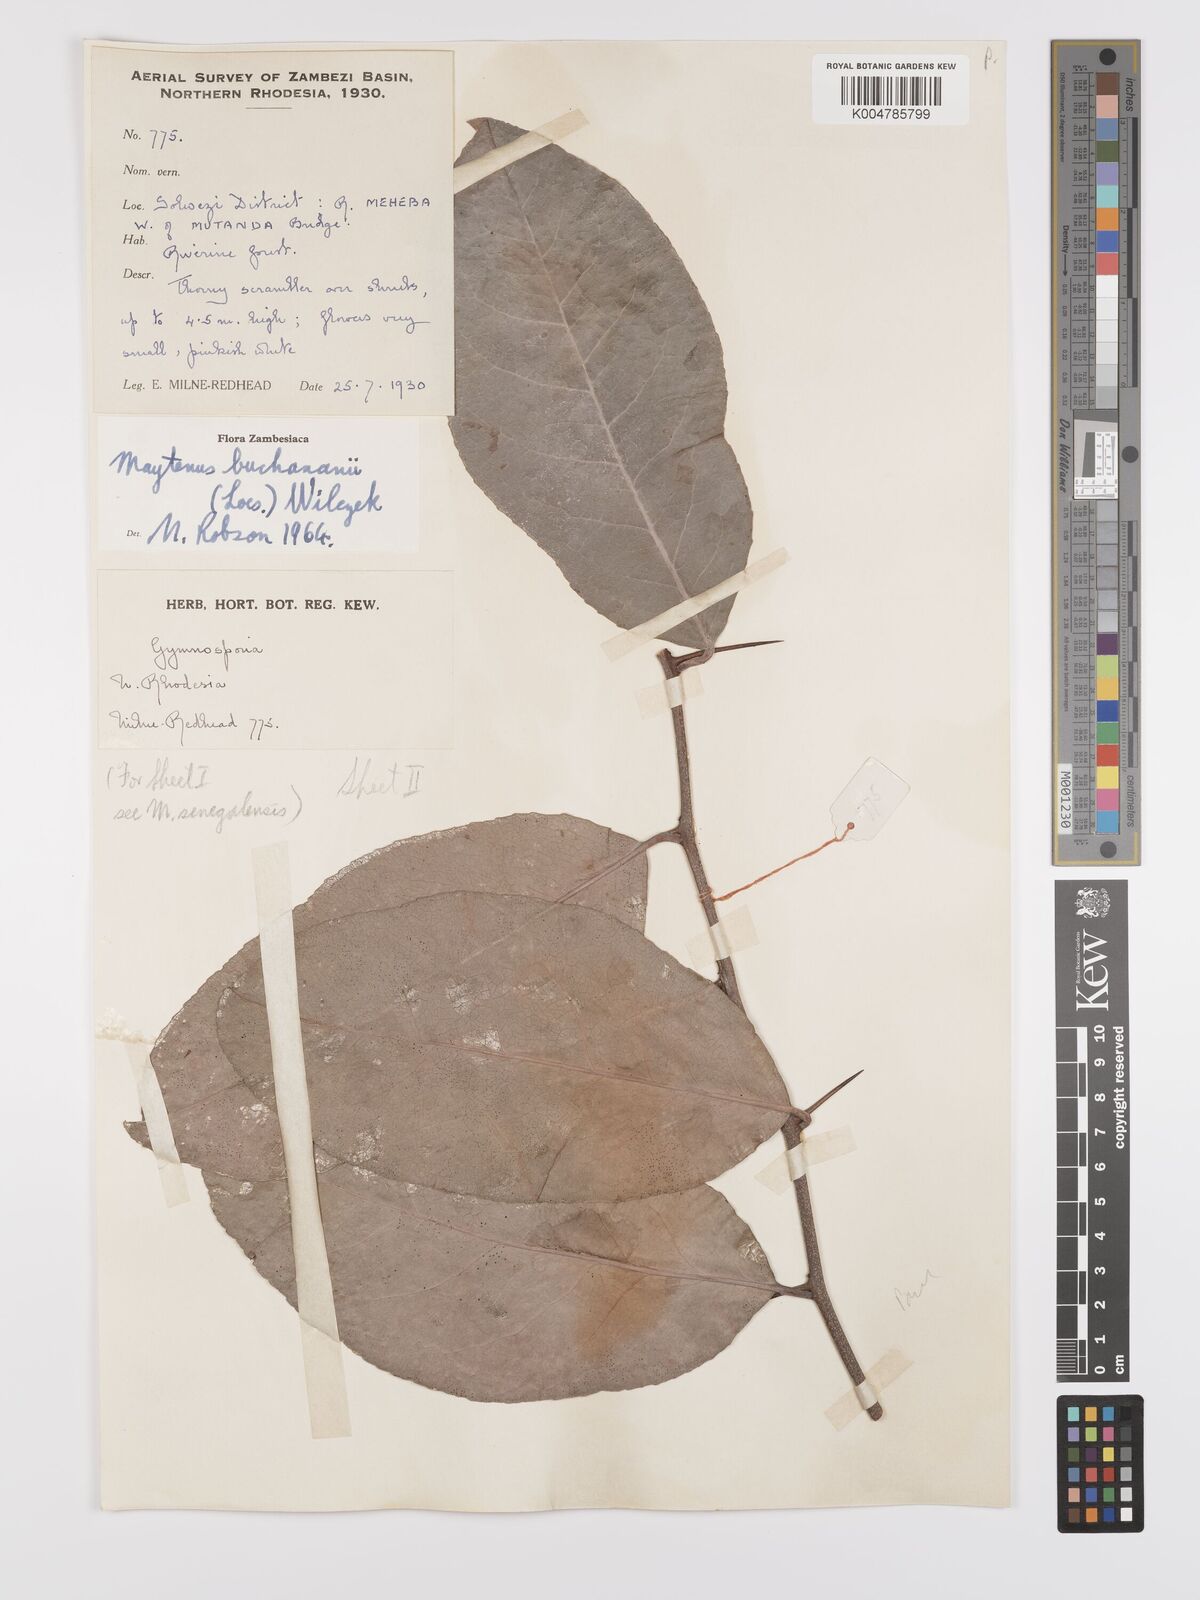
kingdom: Plantae
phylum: Tracheophyta
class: Magnoliopsida
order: Celastrales
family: Celastraceae
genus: Gymnosporia
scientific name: Gymnosporia buchananii
